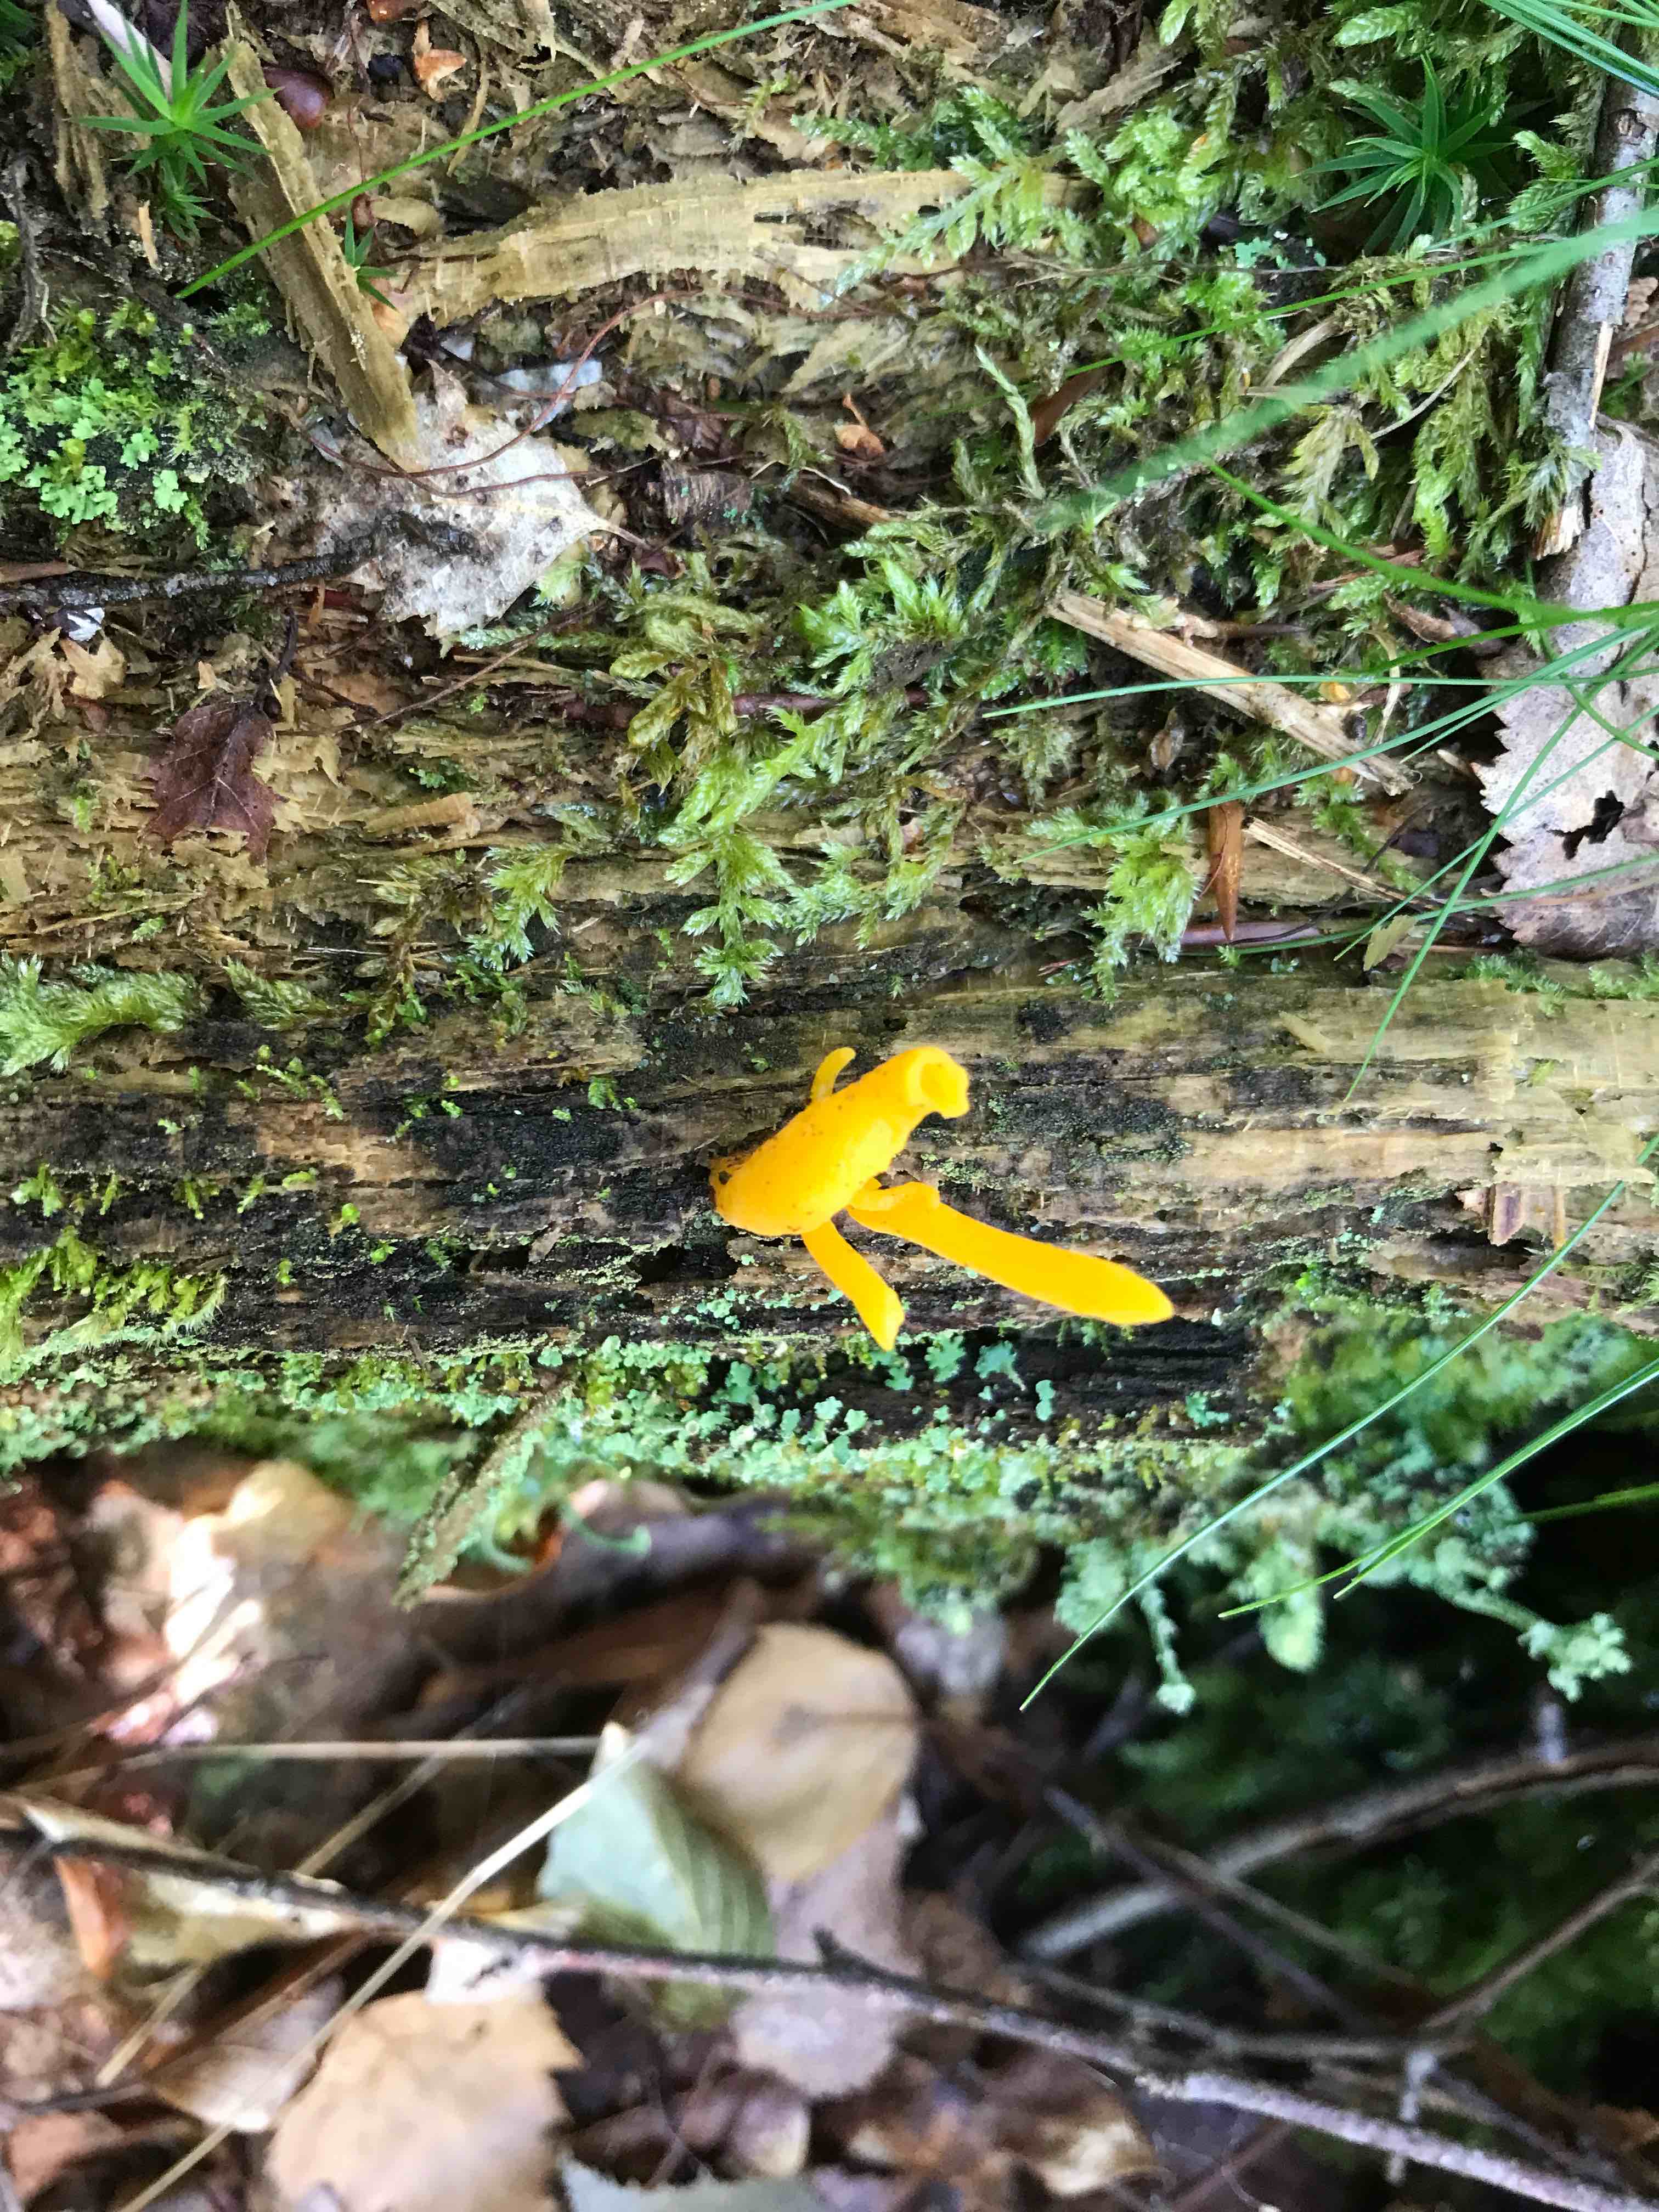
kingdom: Fungi
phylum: Basidiomycota
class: Dacrymycetes
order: Dacrymycetales
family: Dacrymycetaceae
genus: Calocera
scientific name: Calocera viscosa
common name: almindelig guldgaffel
